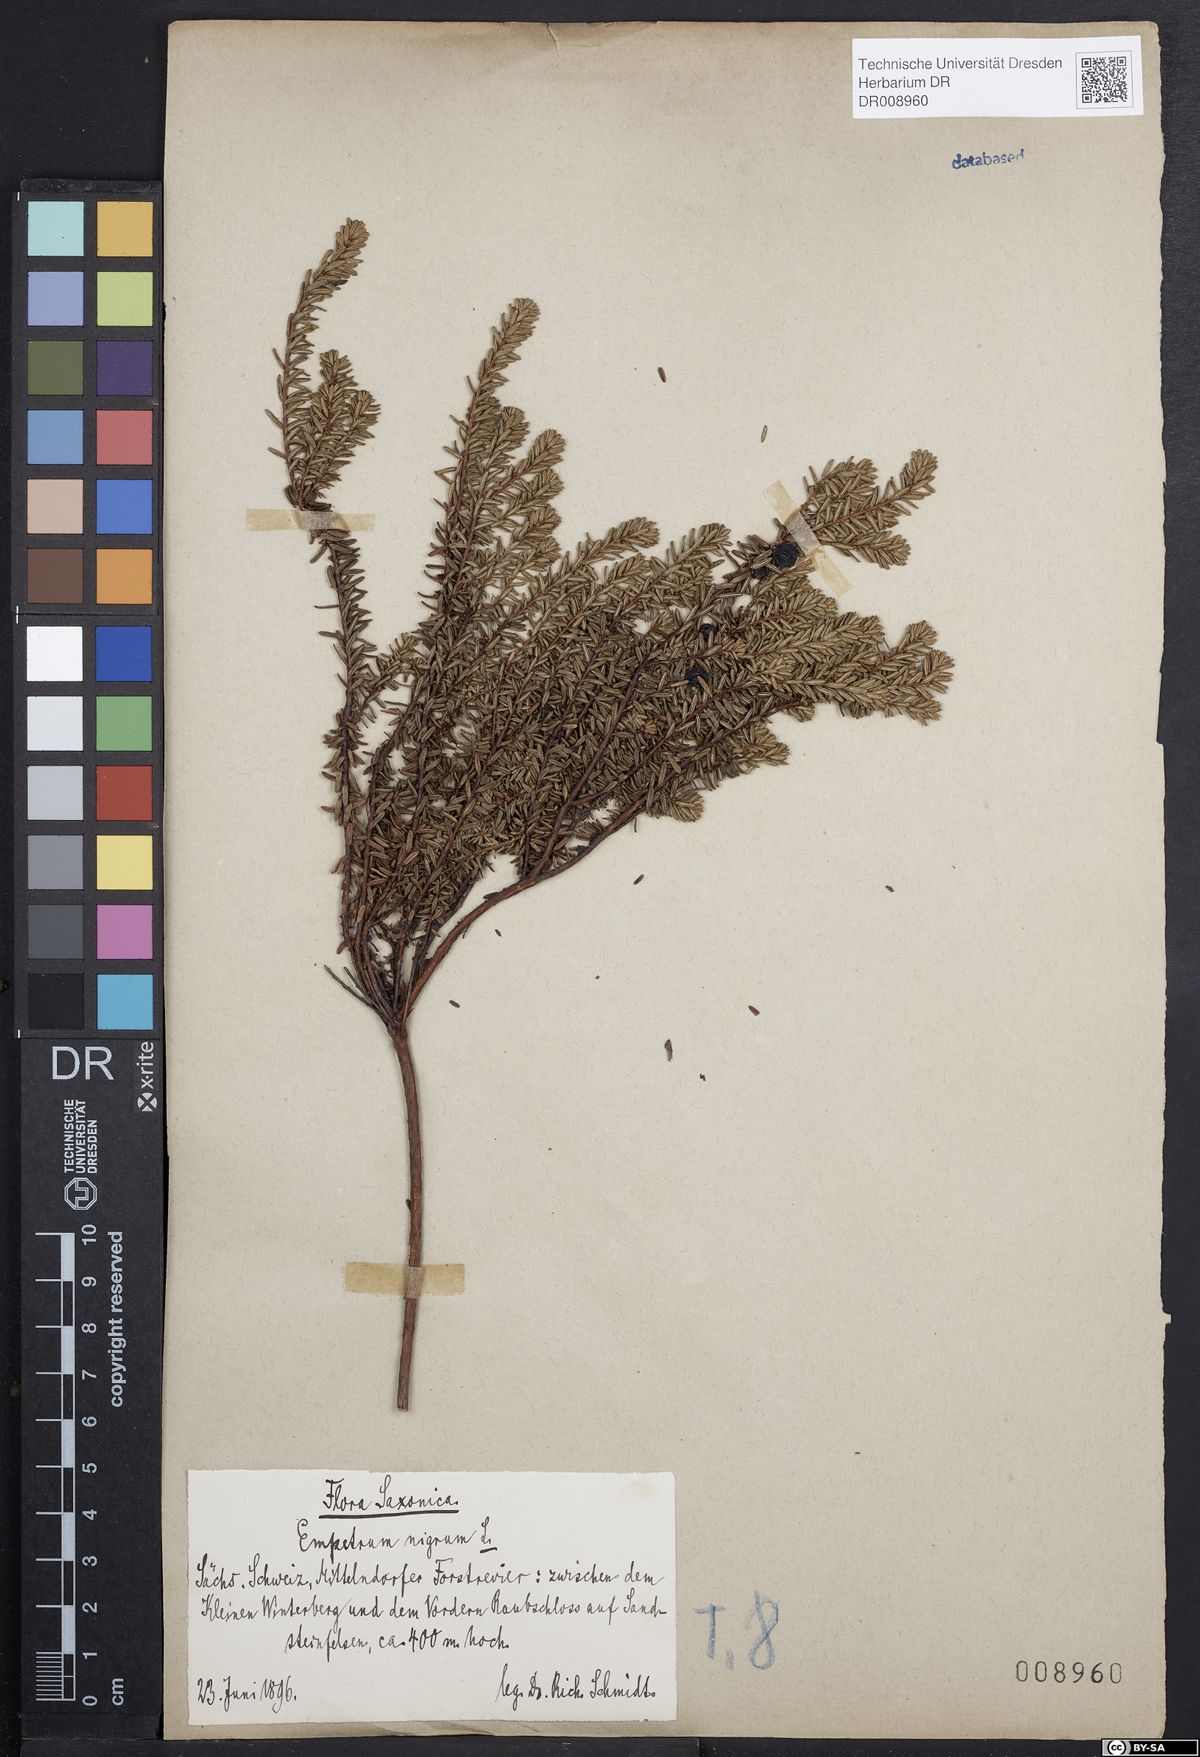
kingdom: Plantae
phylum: Tracheophyta
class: Magnoliopsida
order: Ericales
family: Ericaceae
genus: Empetrum
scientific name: Empetrum nigrum
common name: Black crowberry
